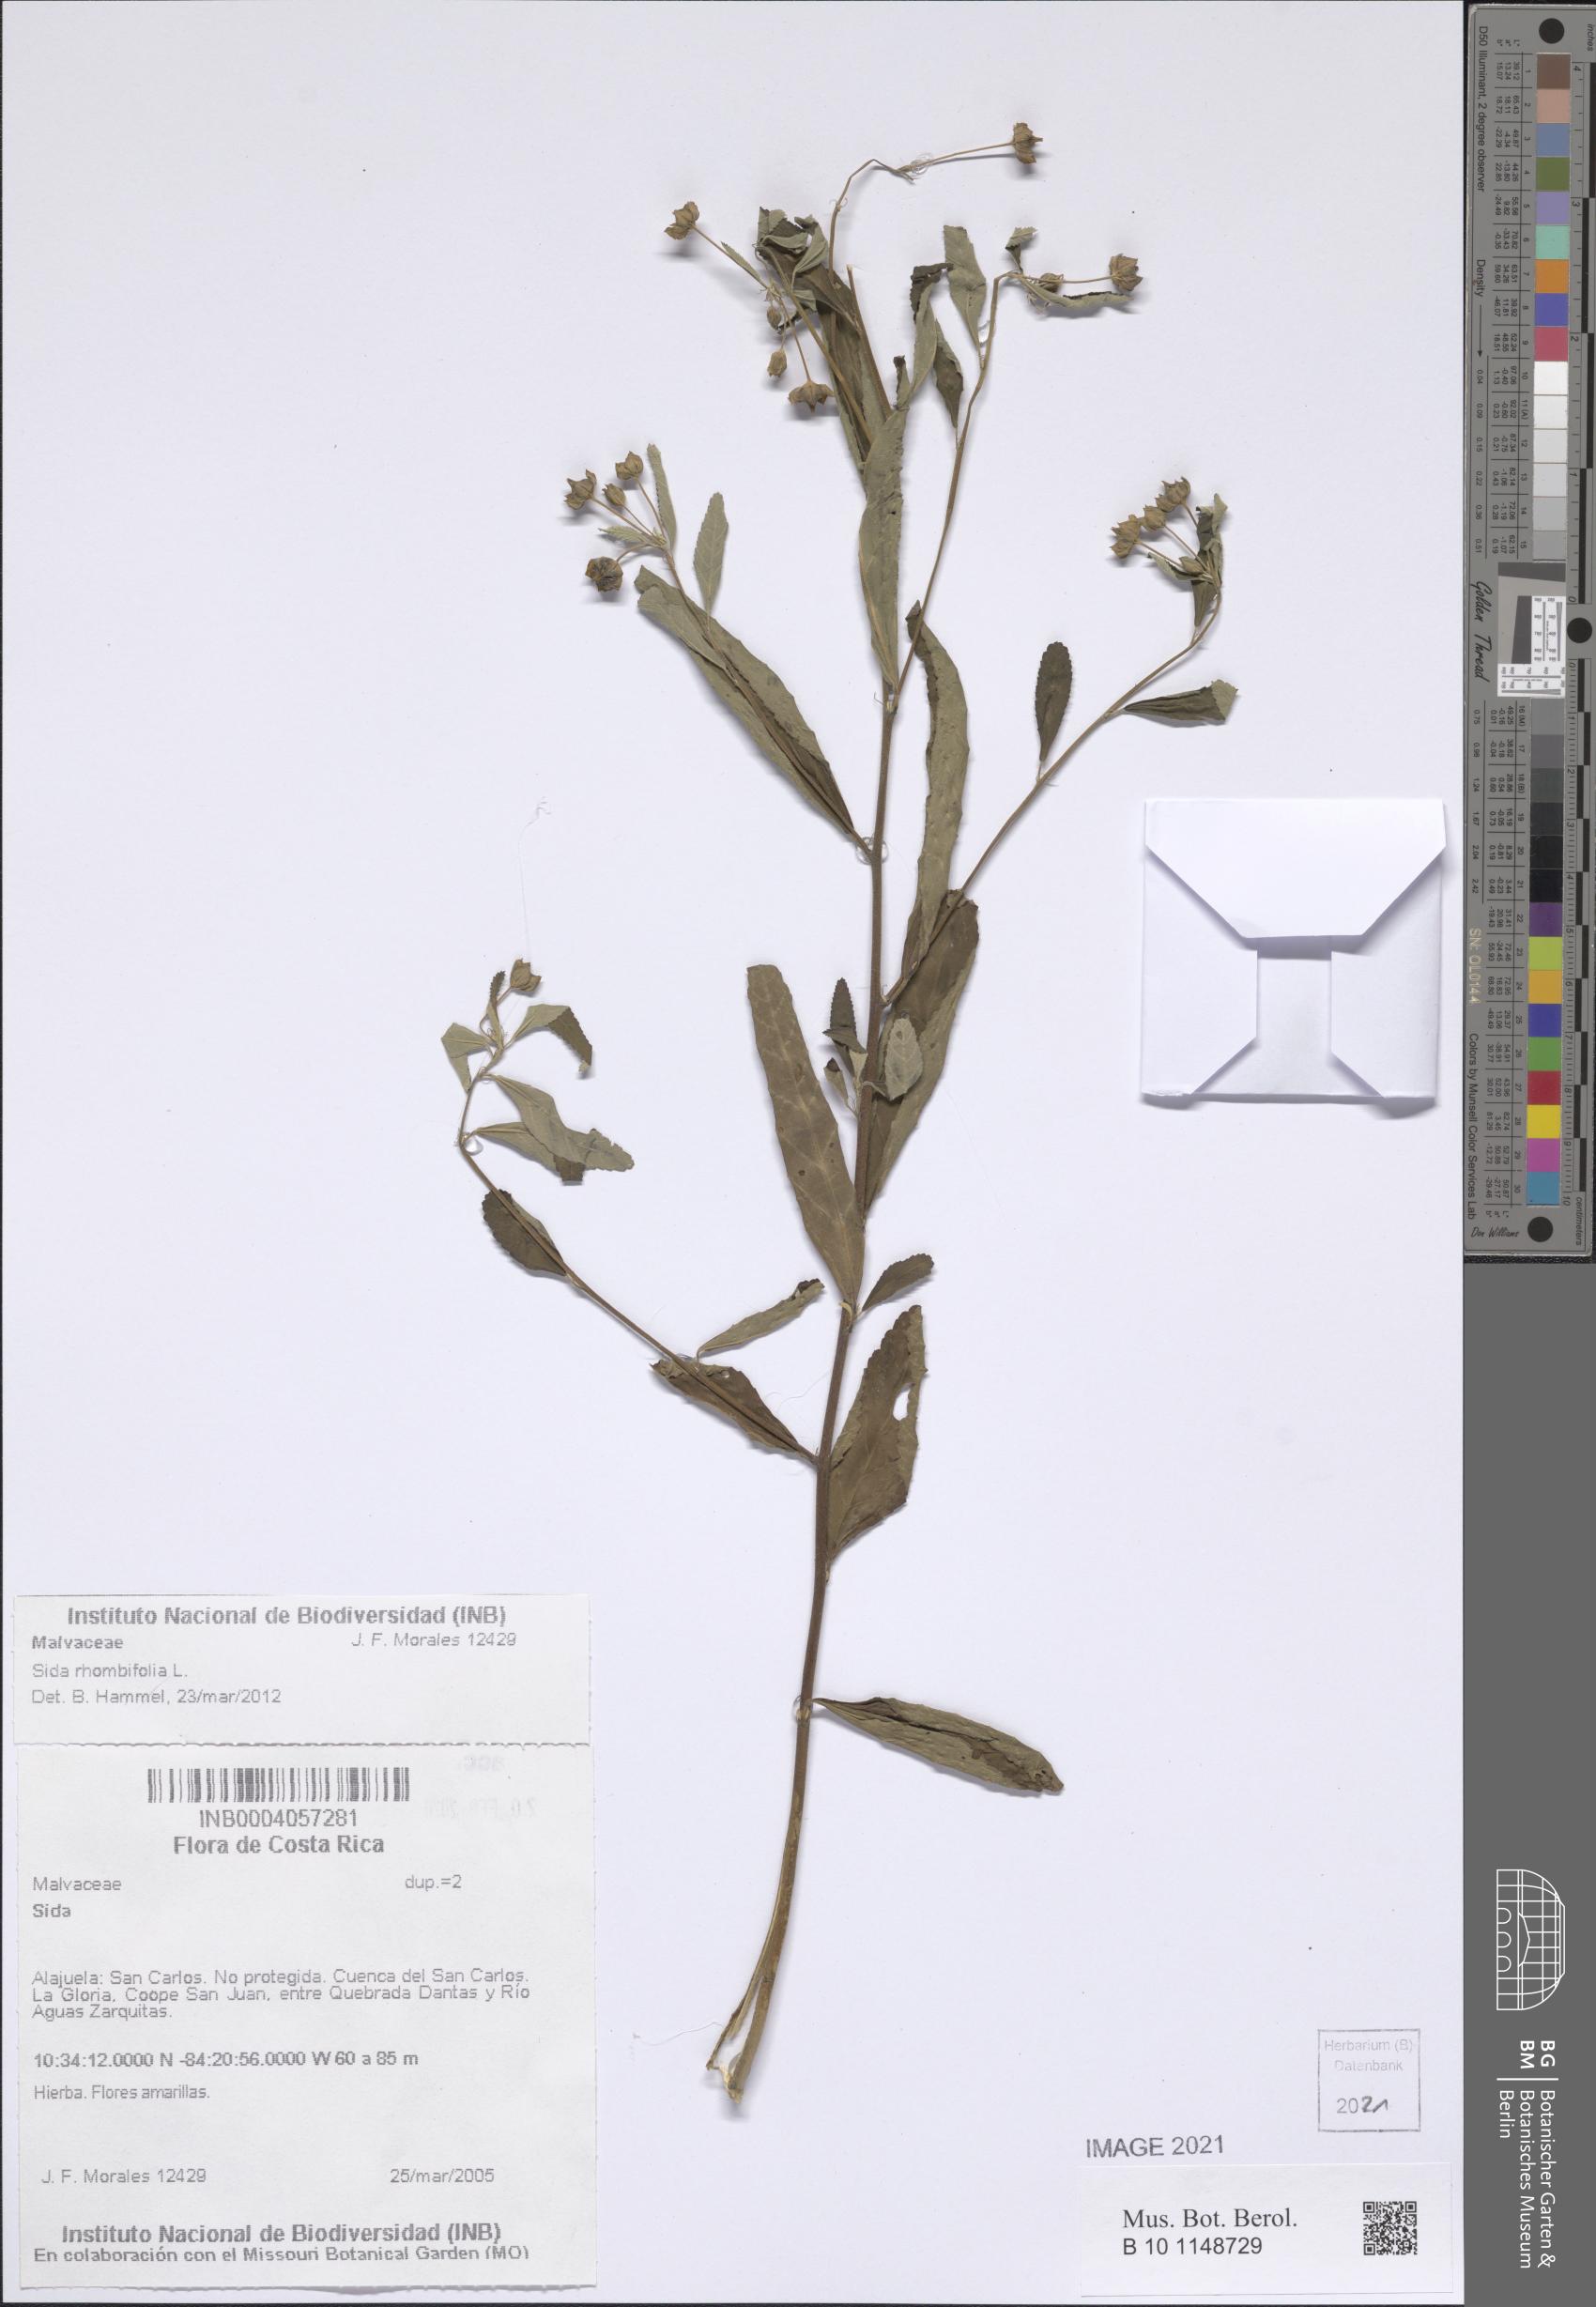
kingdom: Plantae
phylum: Tracheophyta
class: Magnoliopsida
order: Malvales
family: Malvaceae
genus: Sida
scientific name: Sida rhombifolia
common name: Queensland-hemp
